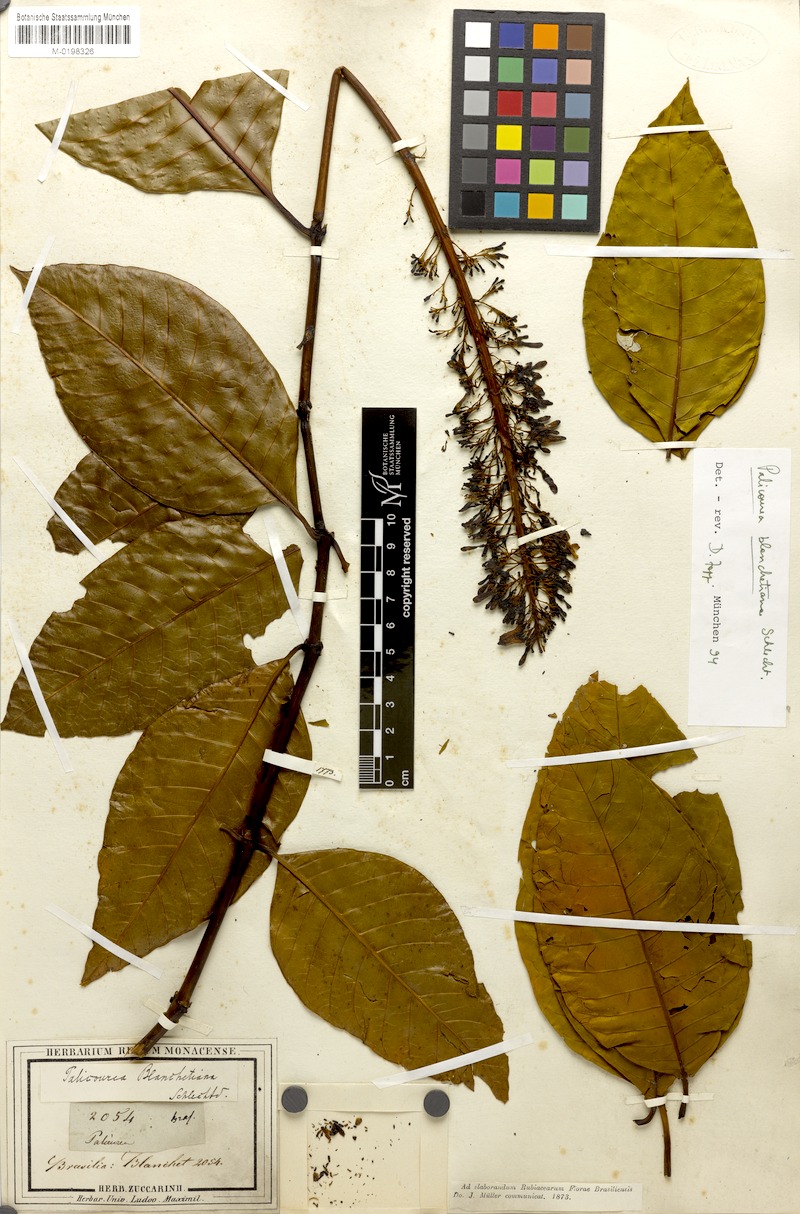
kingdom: Plantae
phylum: Tracheophyta
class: Magnoliopsida
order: Gentianales
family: Rubiaceae
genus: Palicourea
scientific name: Palicourea blanchetiana
